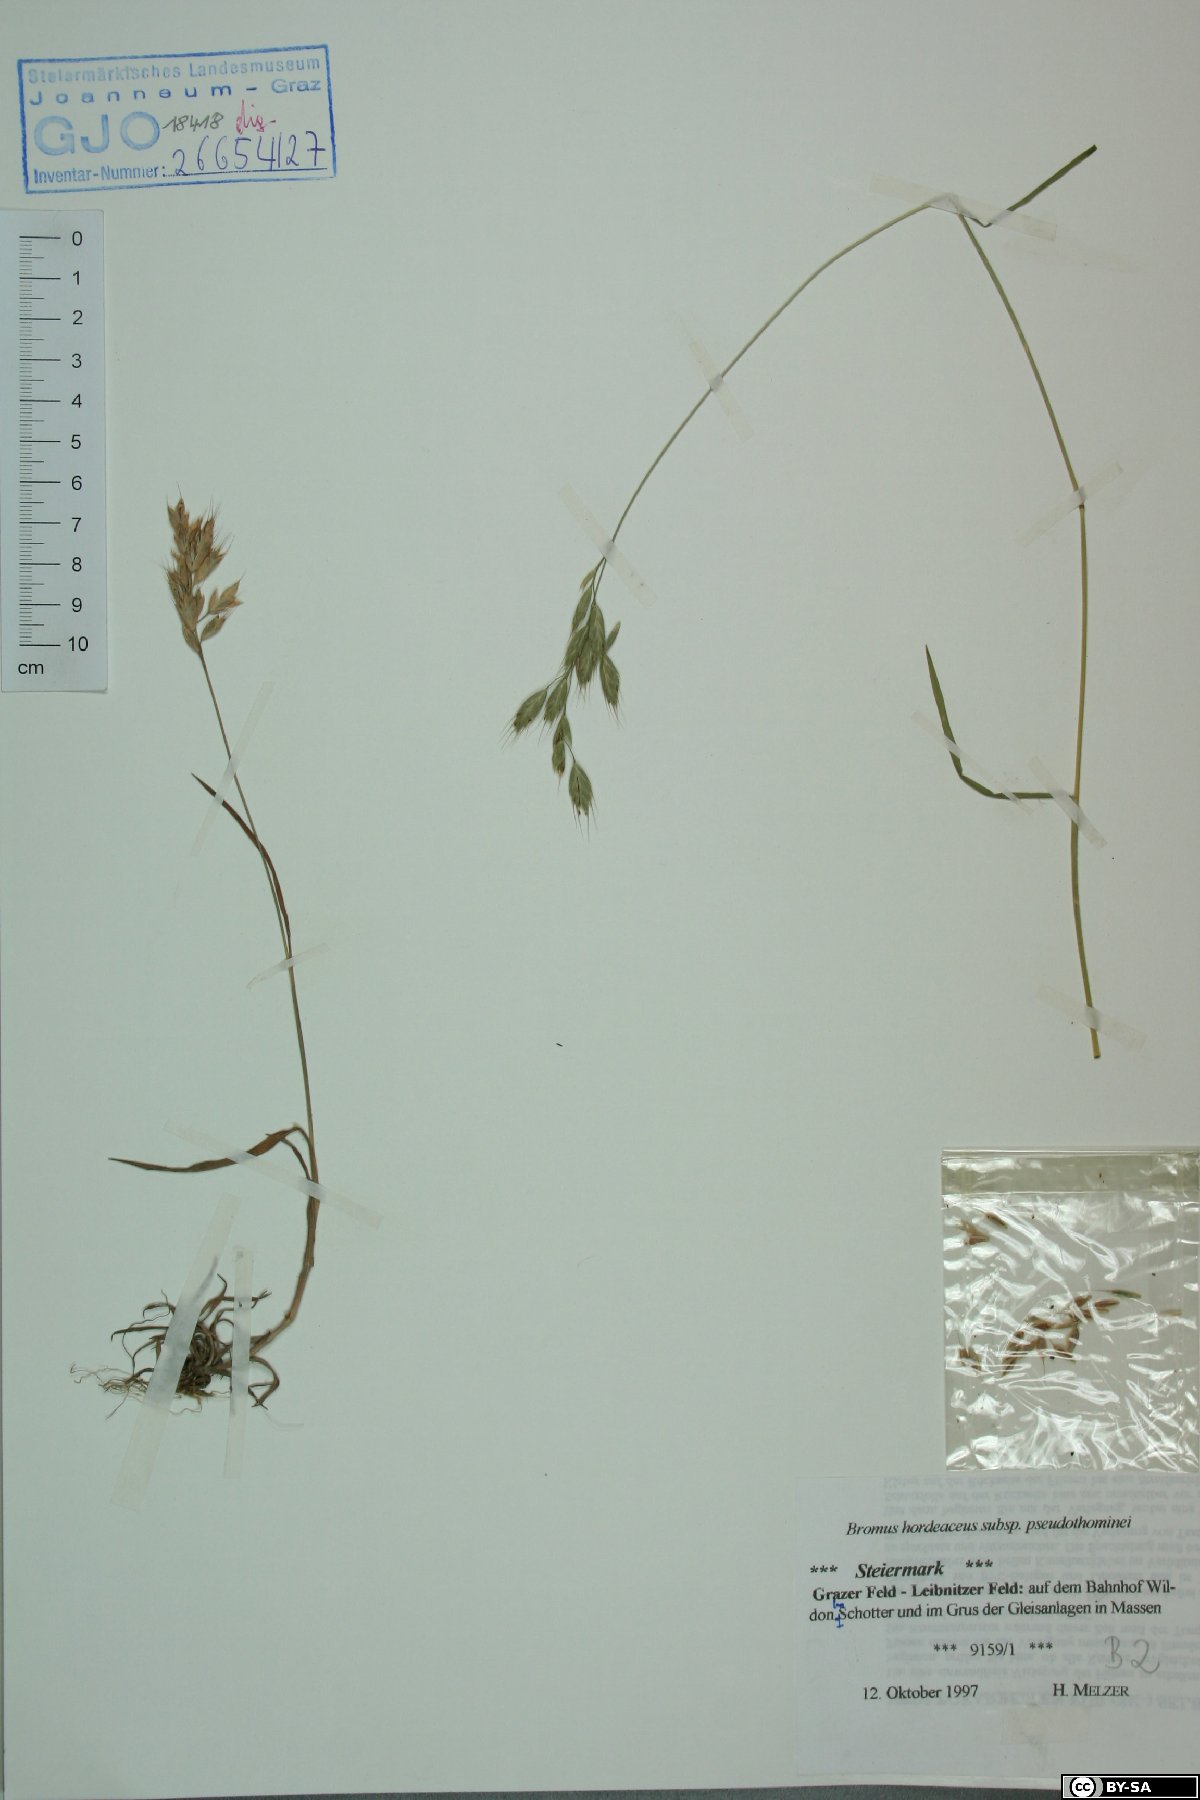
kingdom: Plantae
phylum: Tracheophyta
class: Liliopsida
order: Poales
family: Poaceae
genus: Bromus
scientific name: Bromus ferronii
